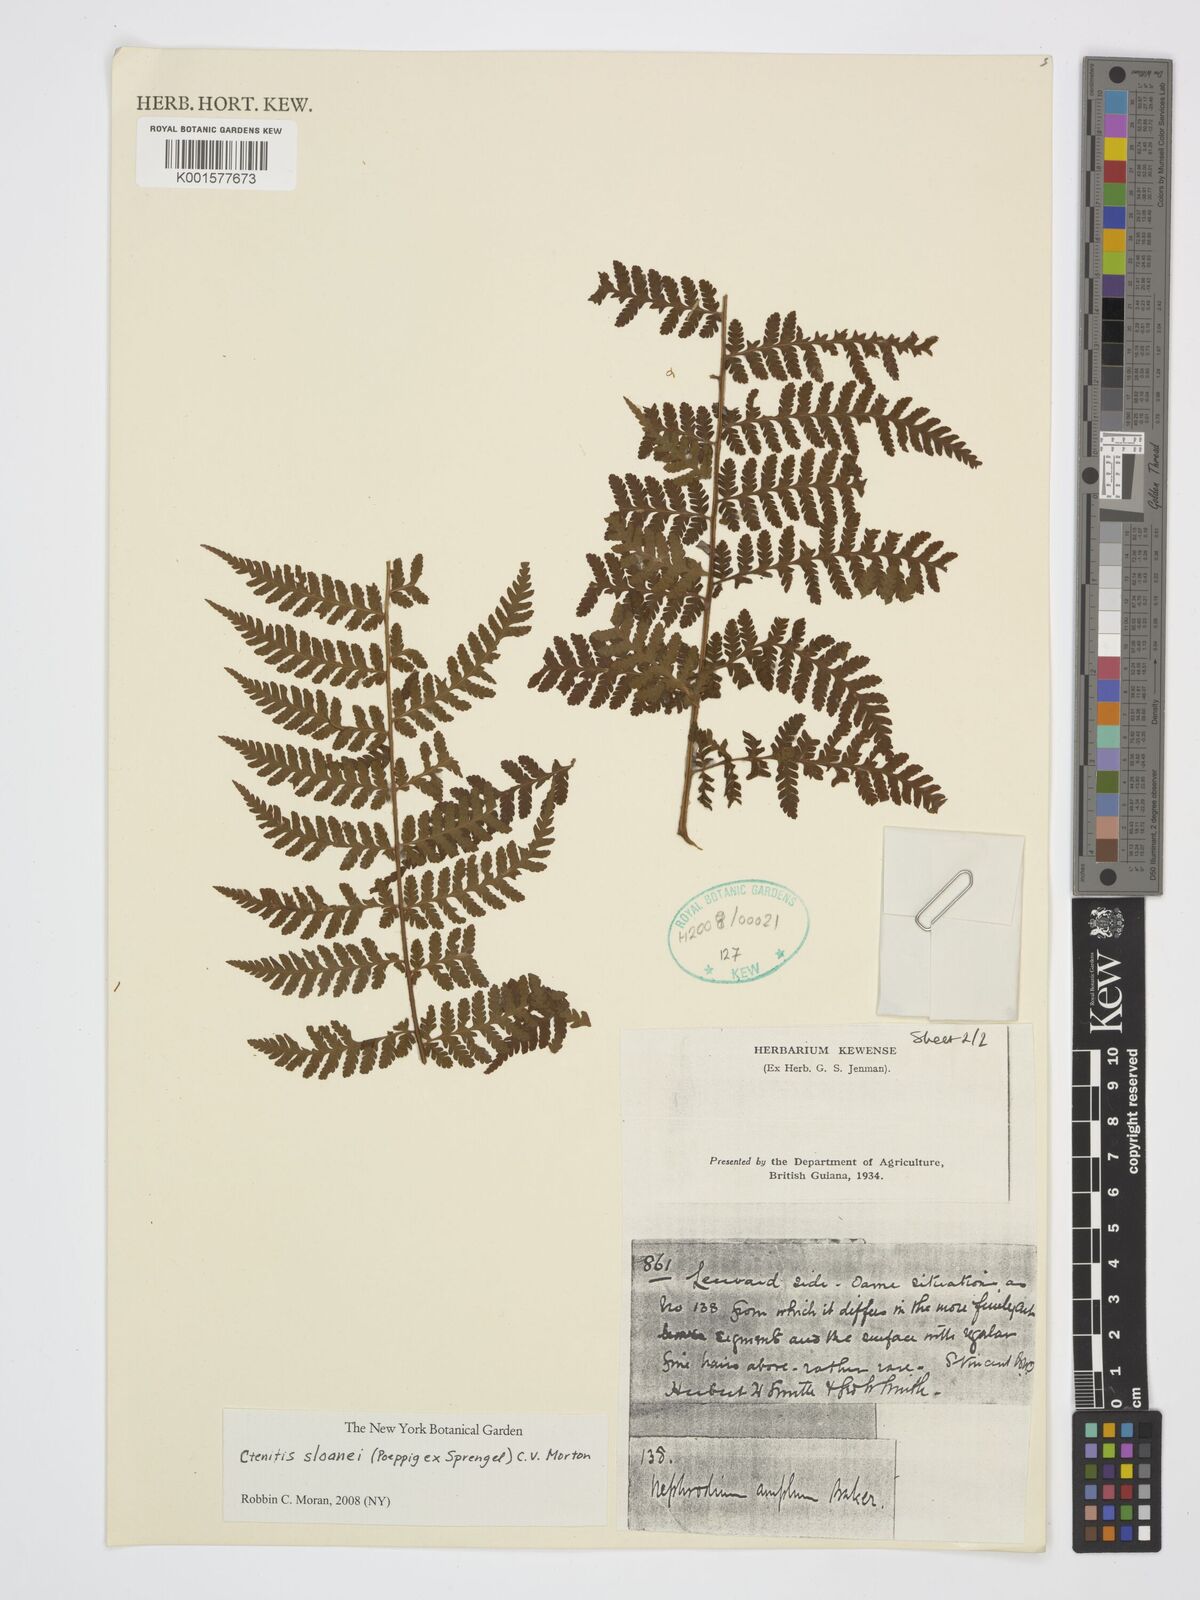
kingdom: Plantae
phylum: Tracheophyta
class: Polypodiopsida
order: Polypodiales
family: Dryopteridaceae
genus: Ctenitis
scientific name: Ctenitis sloanei
